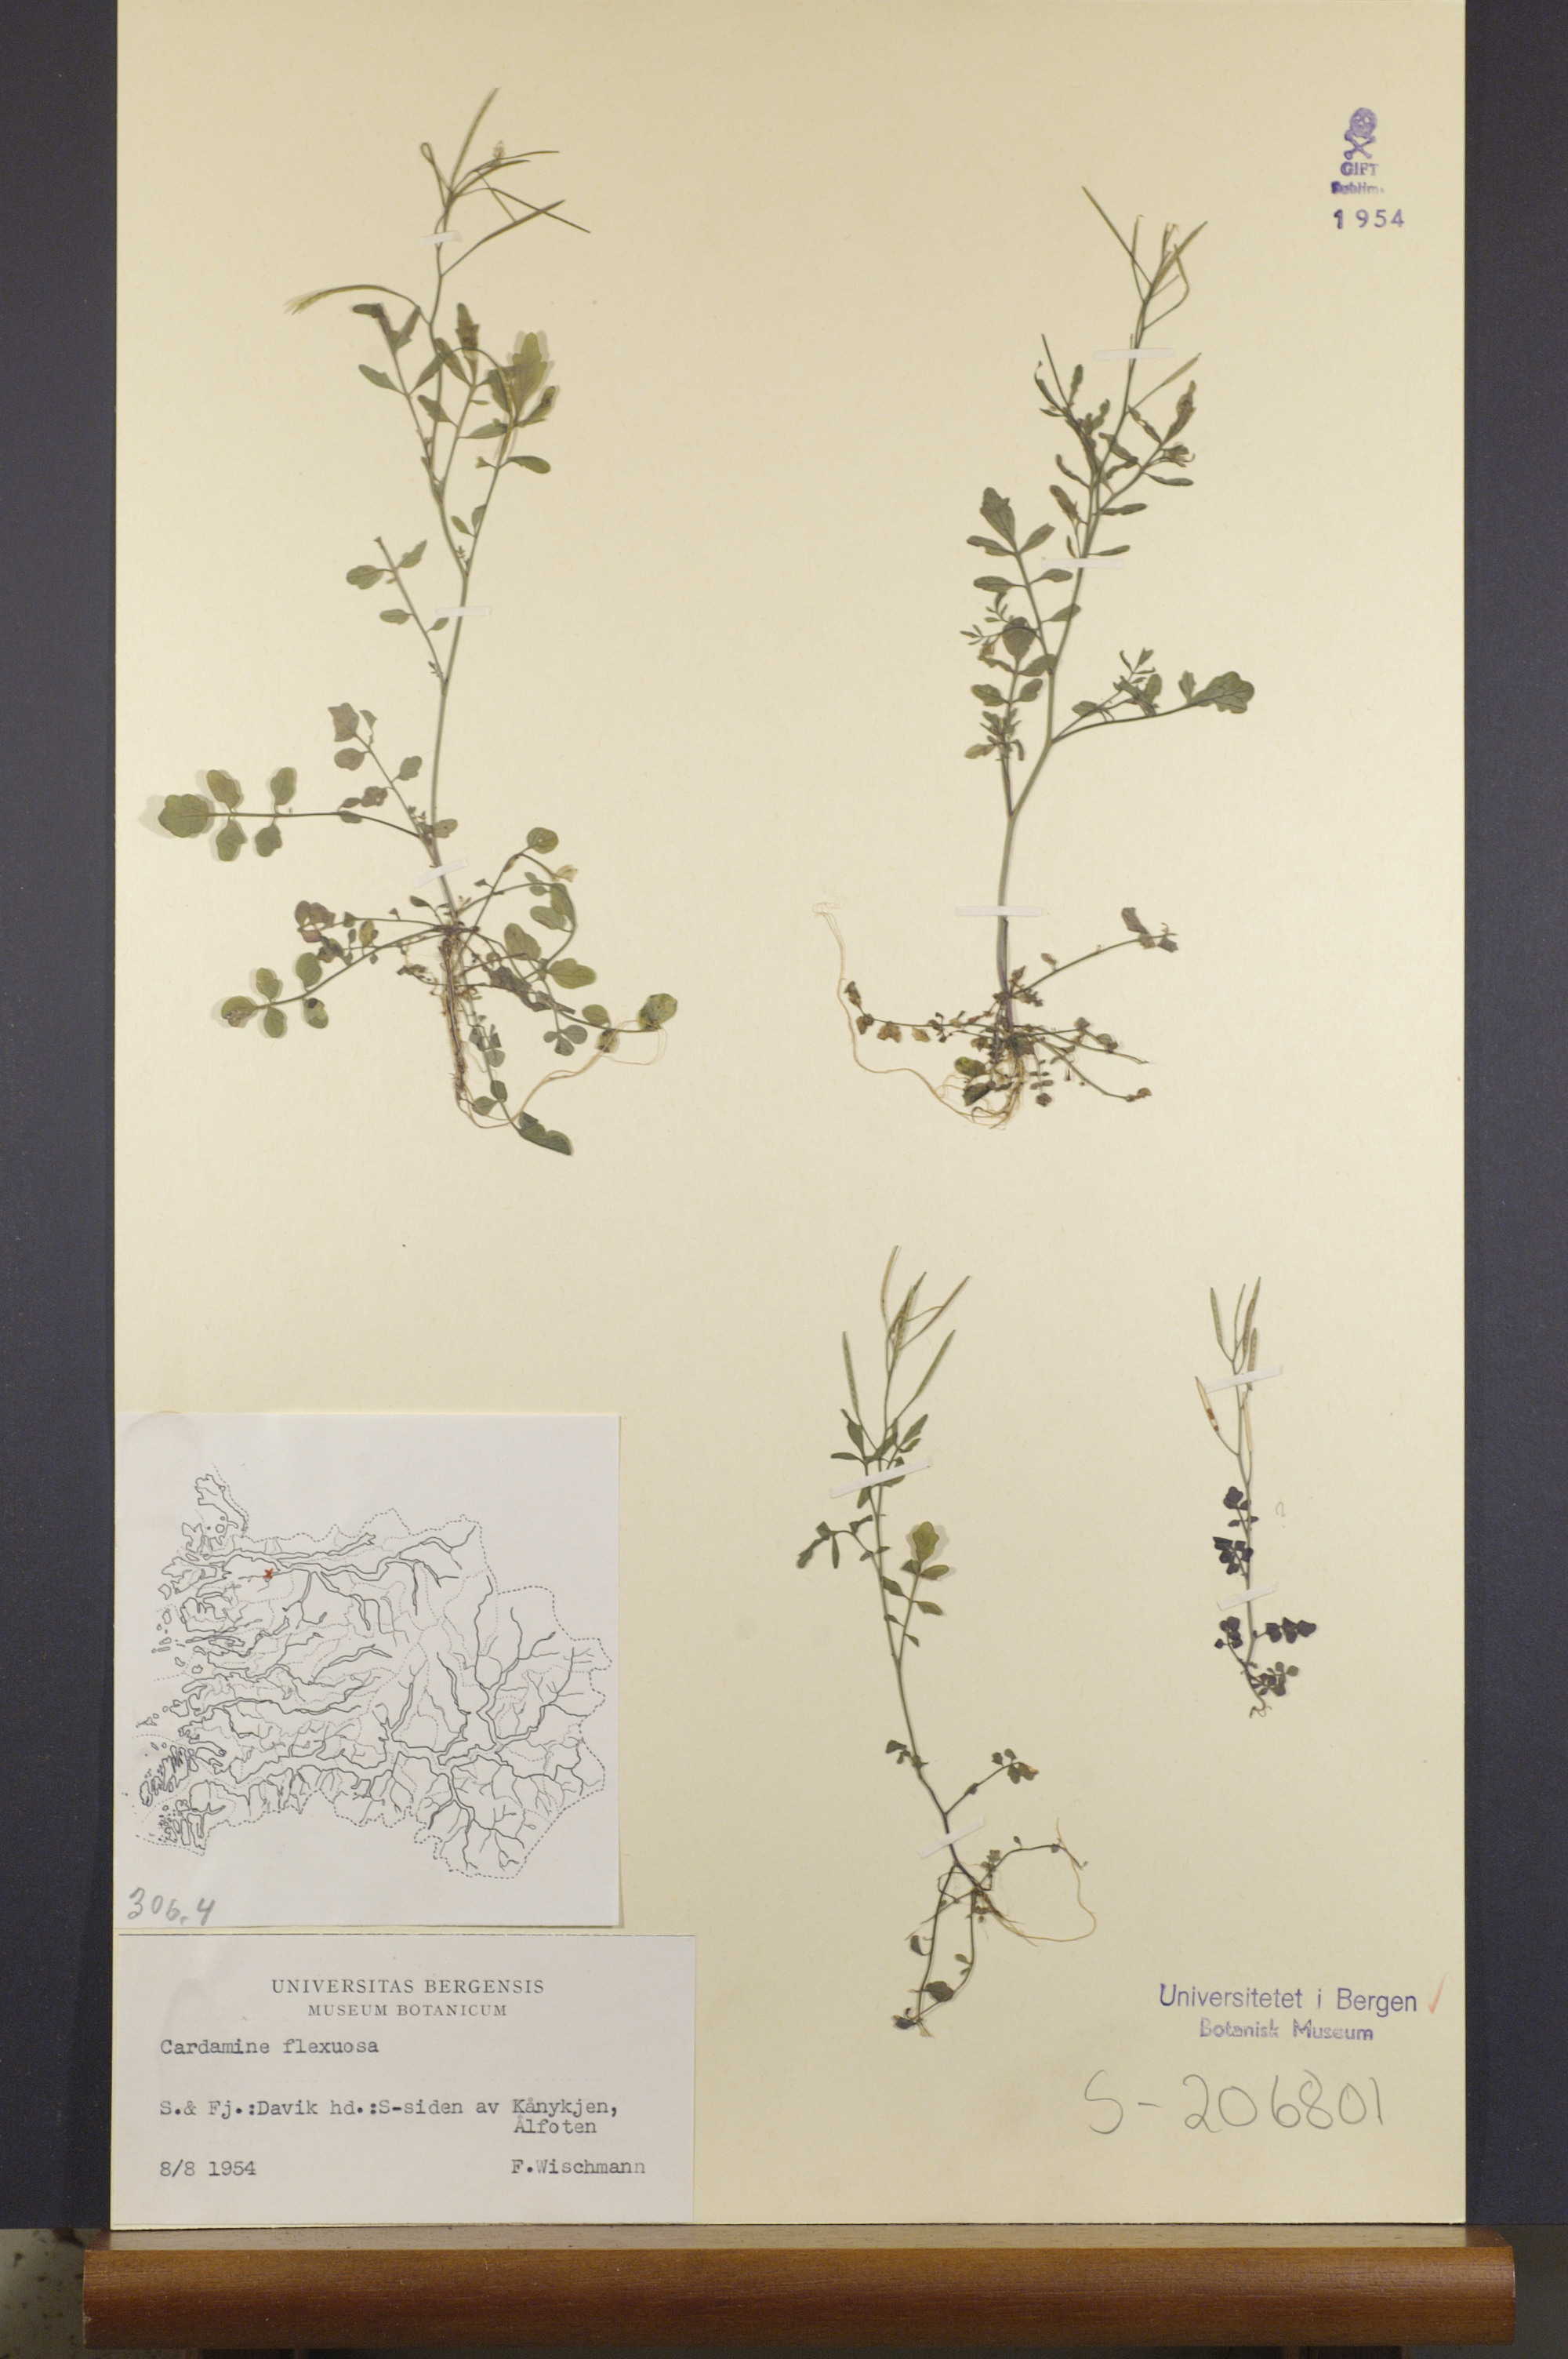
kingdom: Plantae
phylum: Tracheophyta
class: Magnoliopsida
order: Brassicales
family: Brassicaceae
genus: Cardamine
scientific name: Cardamine flexuosa
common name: Woodland bittercress
